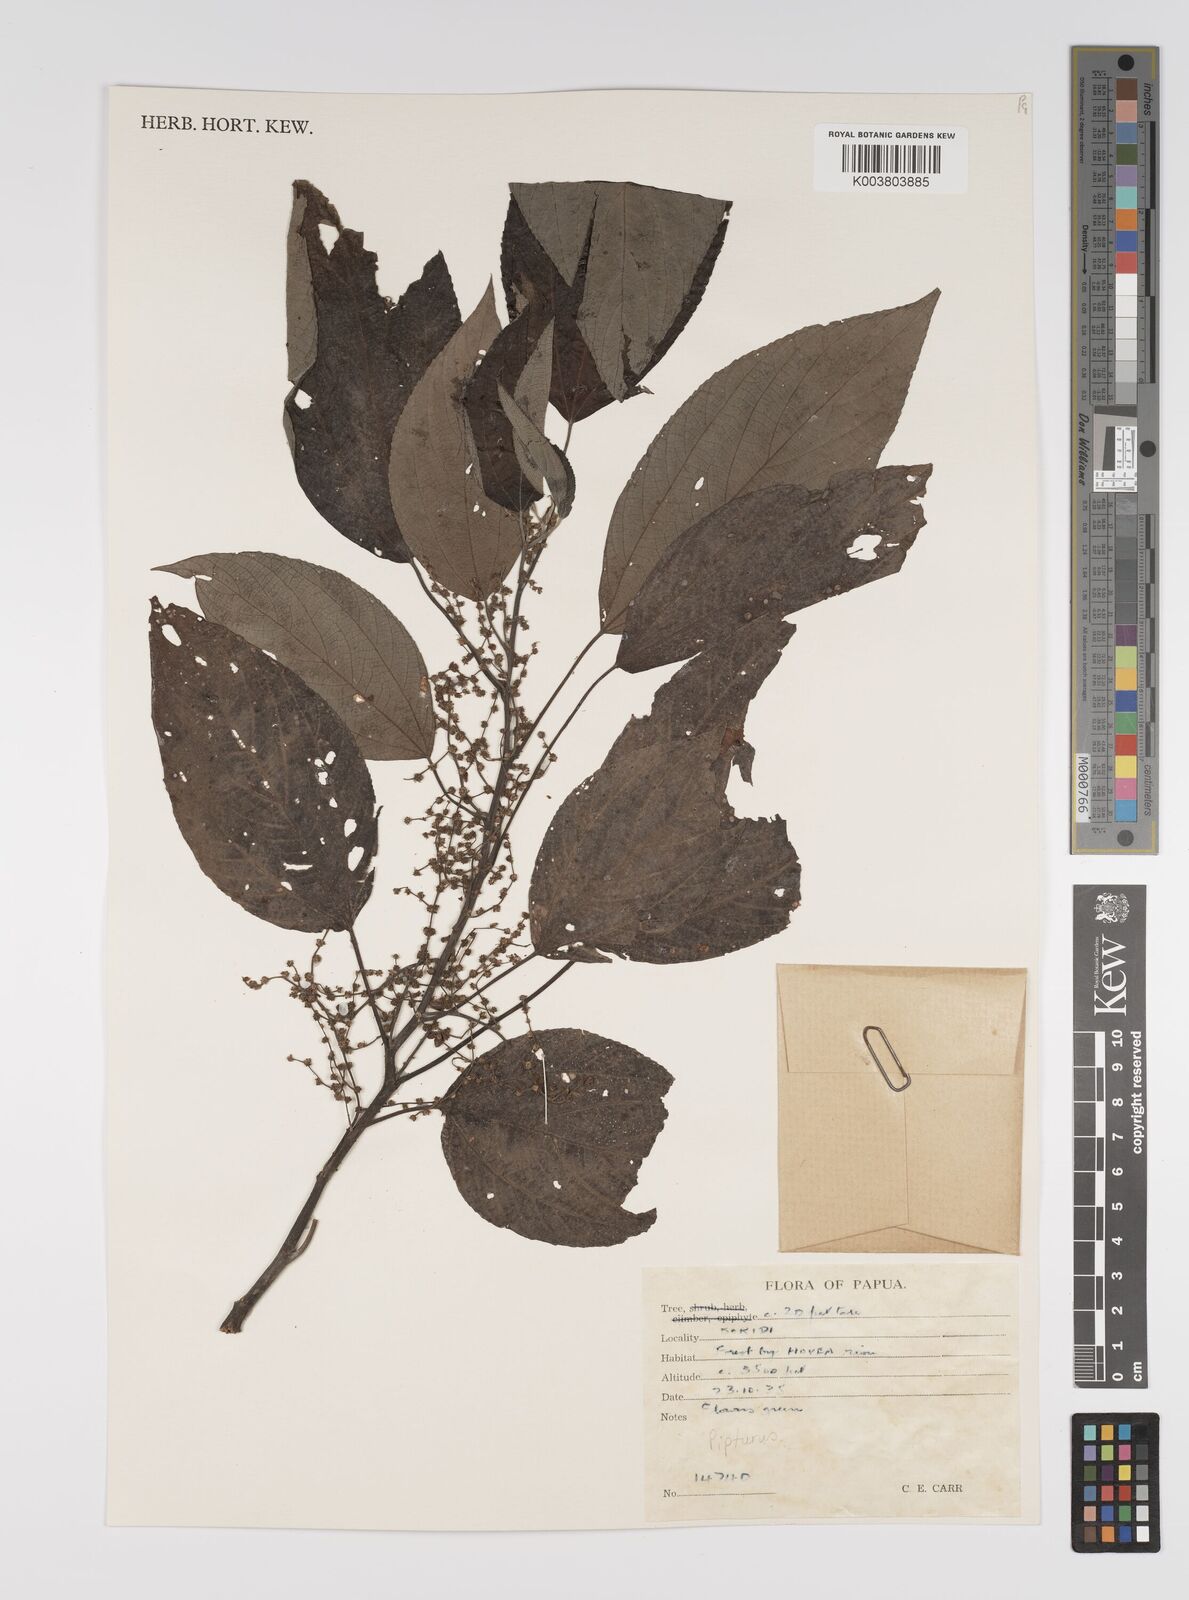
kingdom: Plantae
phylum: Tracheophyta
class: Magnoliopsida
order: Rosales
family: Urticaceae
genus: Pipturus
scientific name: Pipturus argenteus
